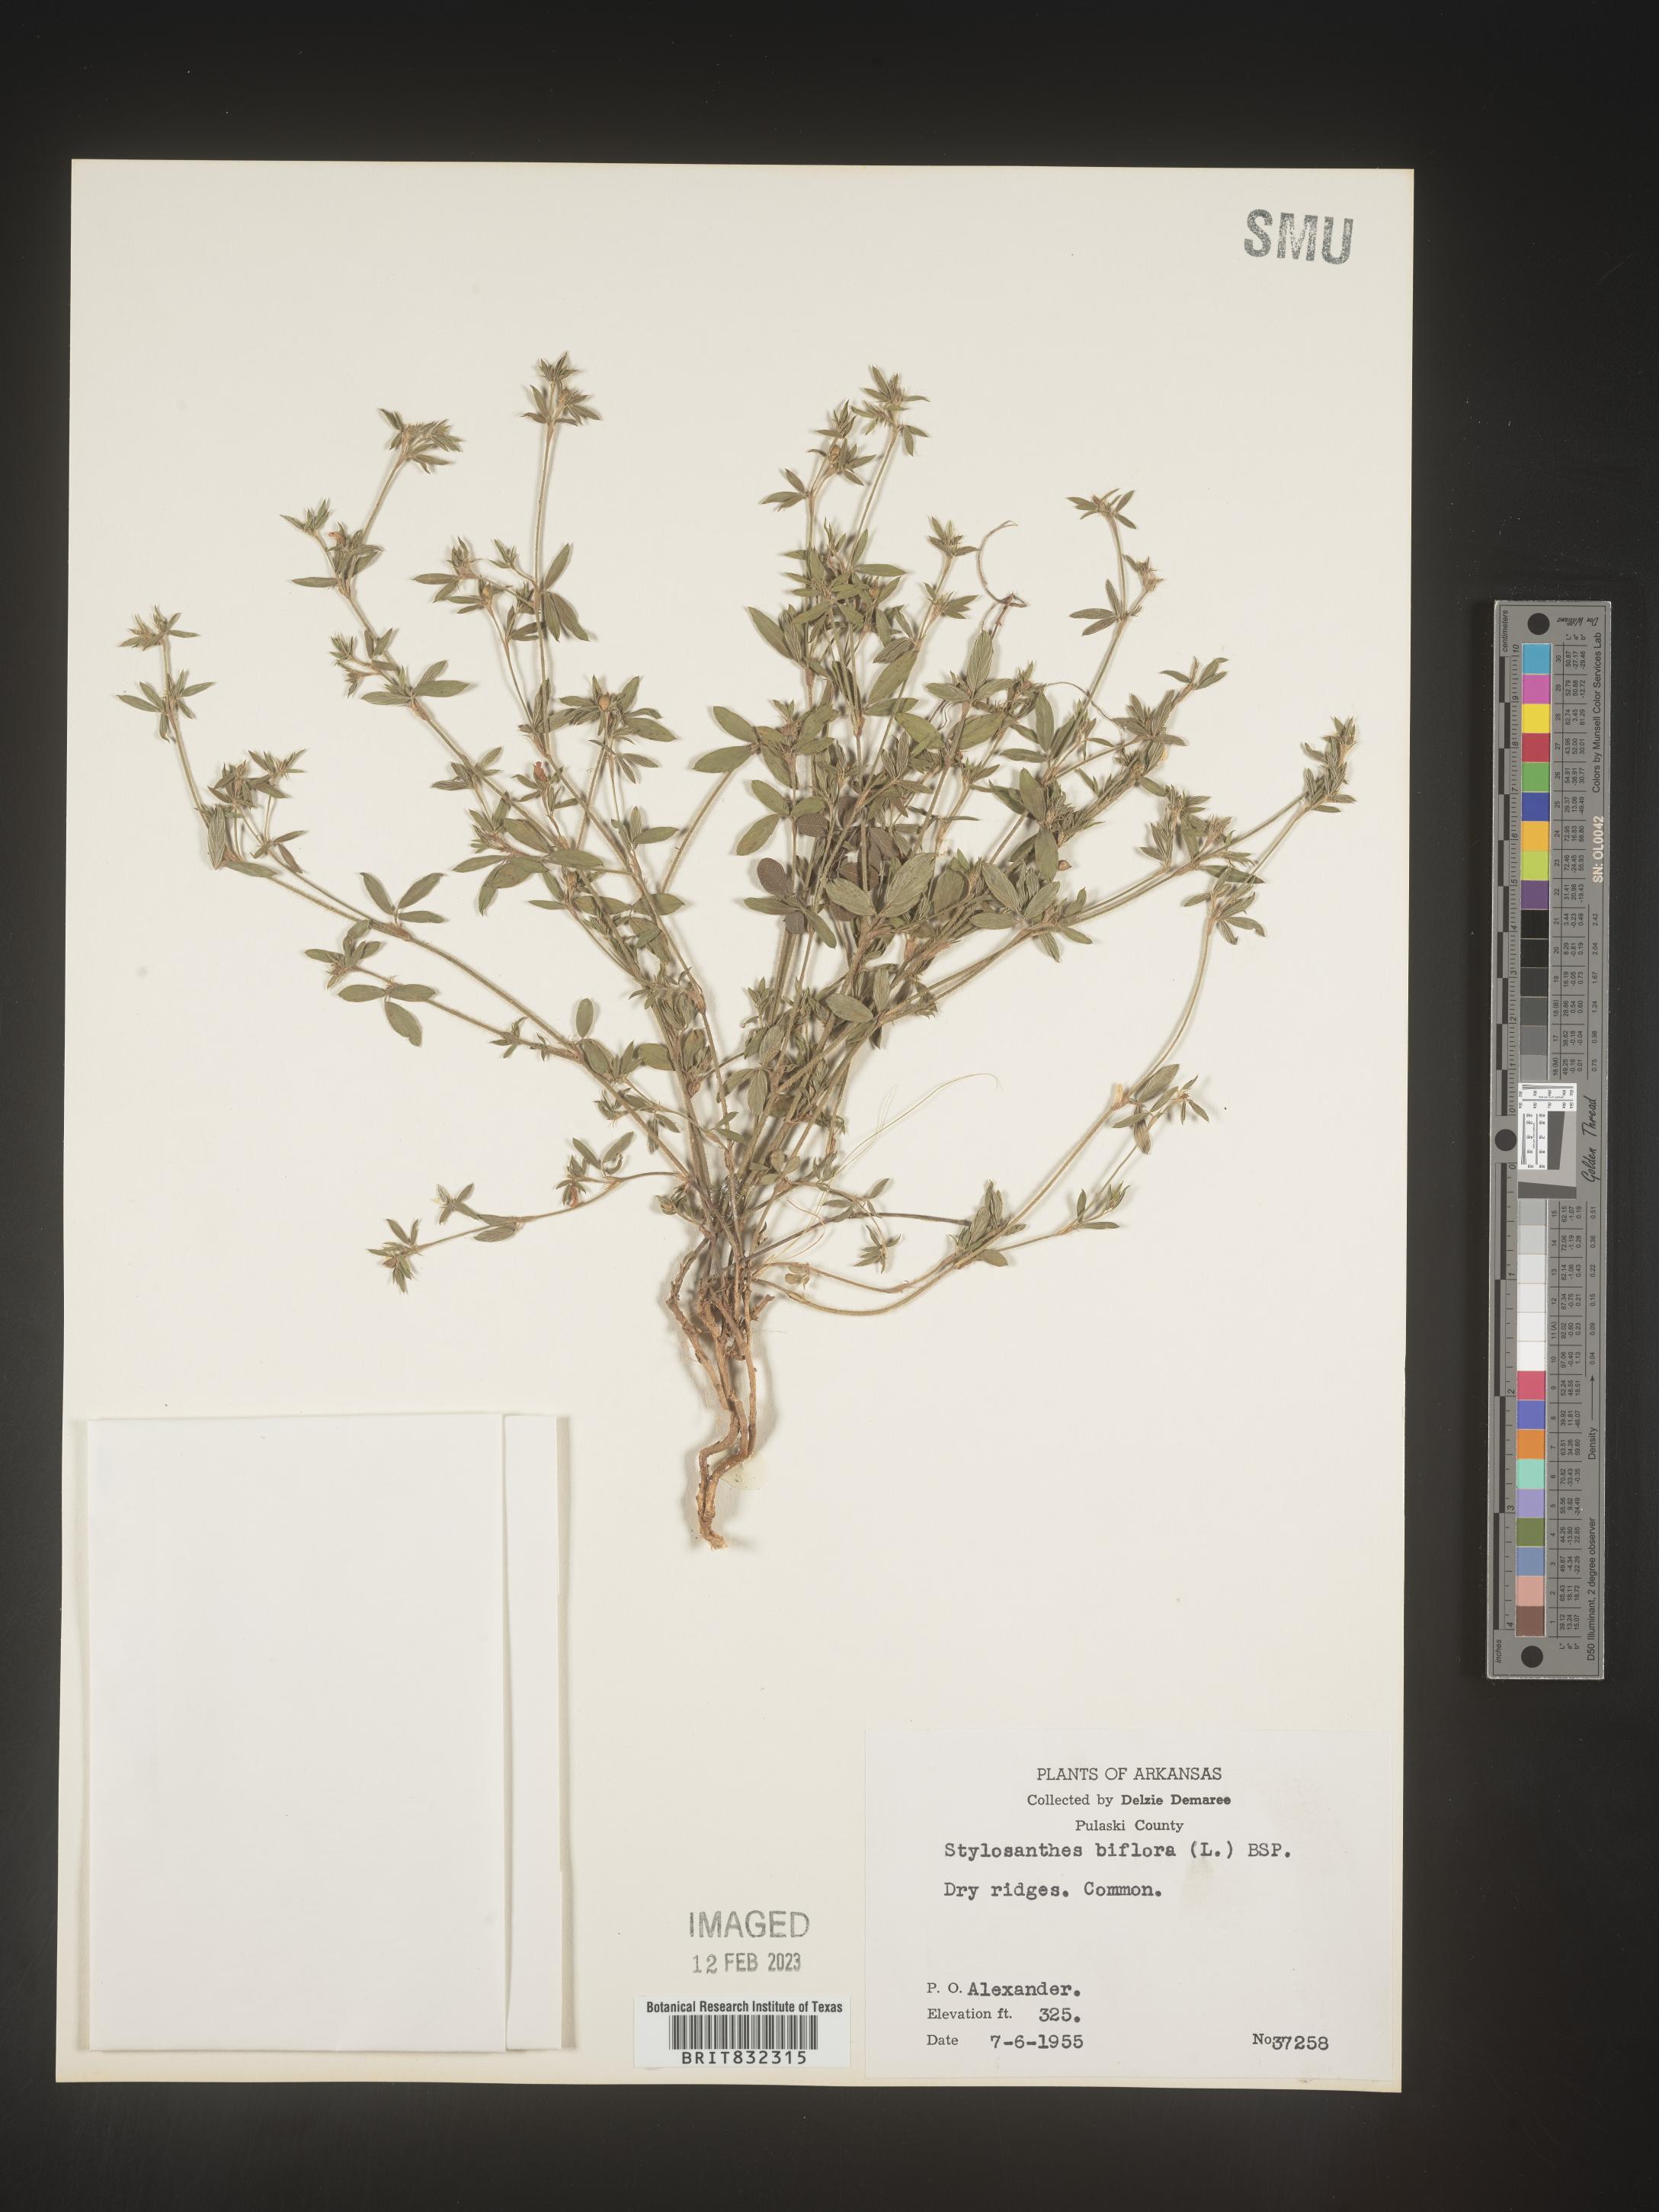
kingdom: Plantae
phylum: Tracheophyta
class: Magnoliopsida
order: Fabales
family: Fabaceae
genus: Stylosanthes
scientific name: Stylosanthes biflora
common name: Two-flower pencil-flower
